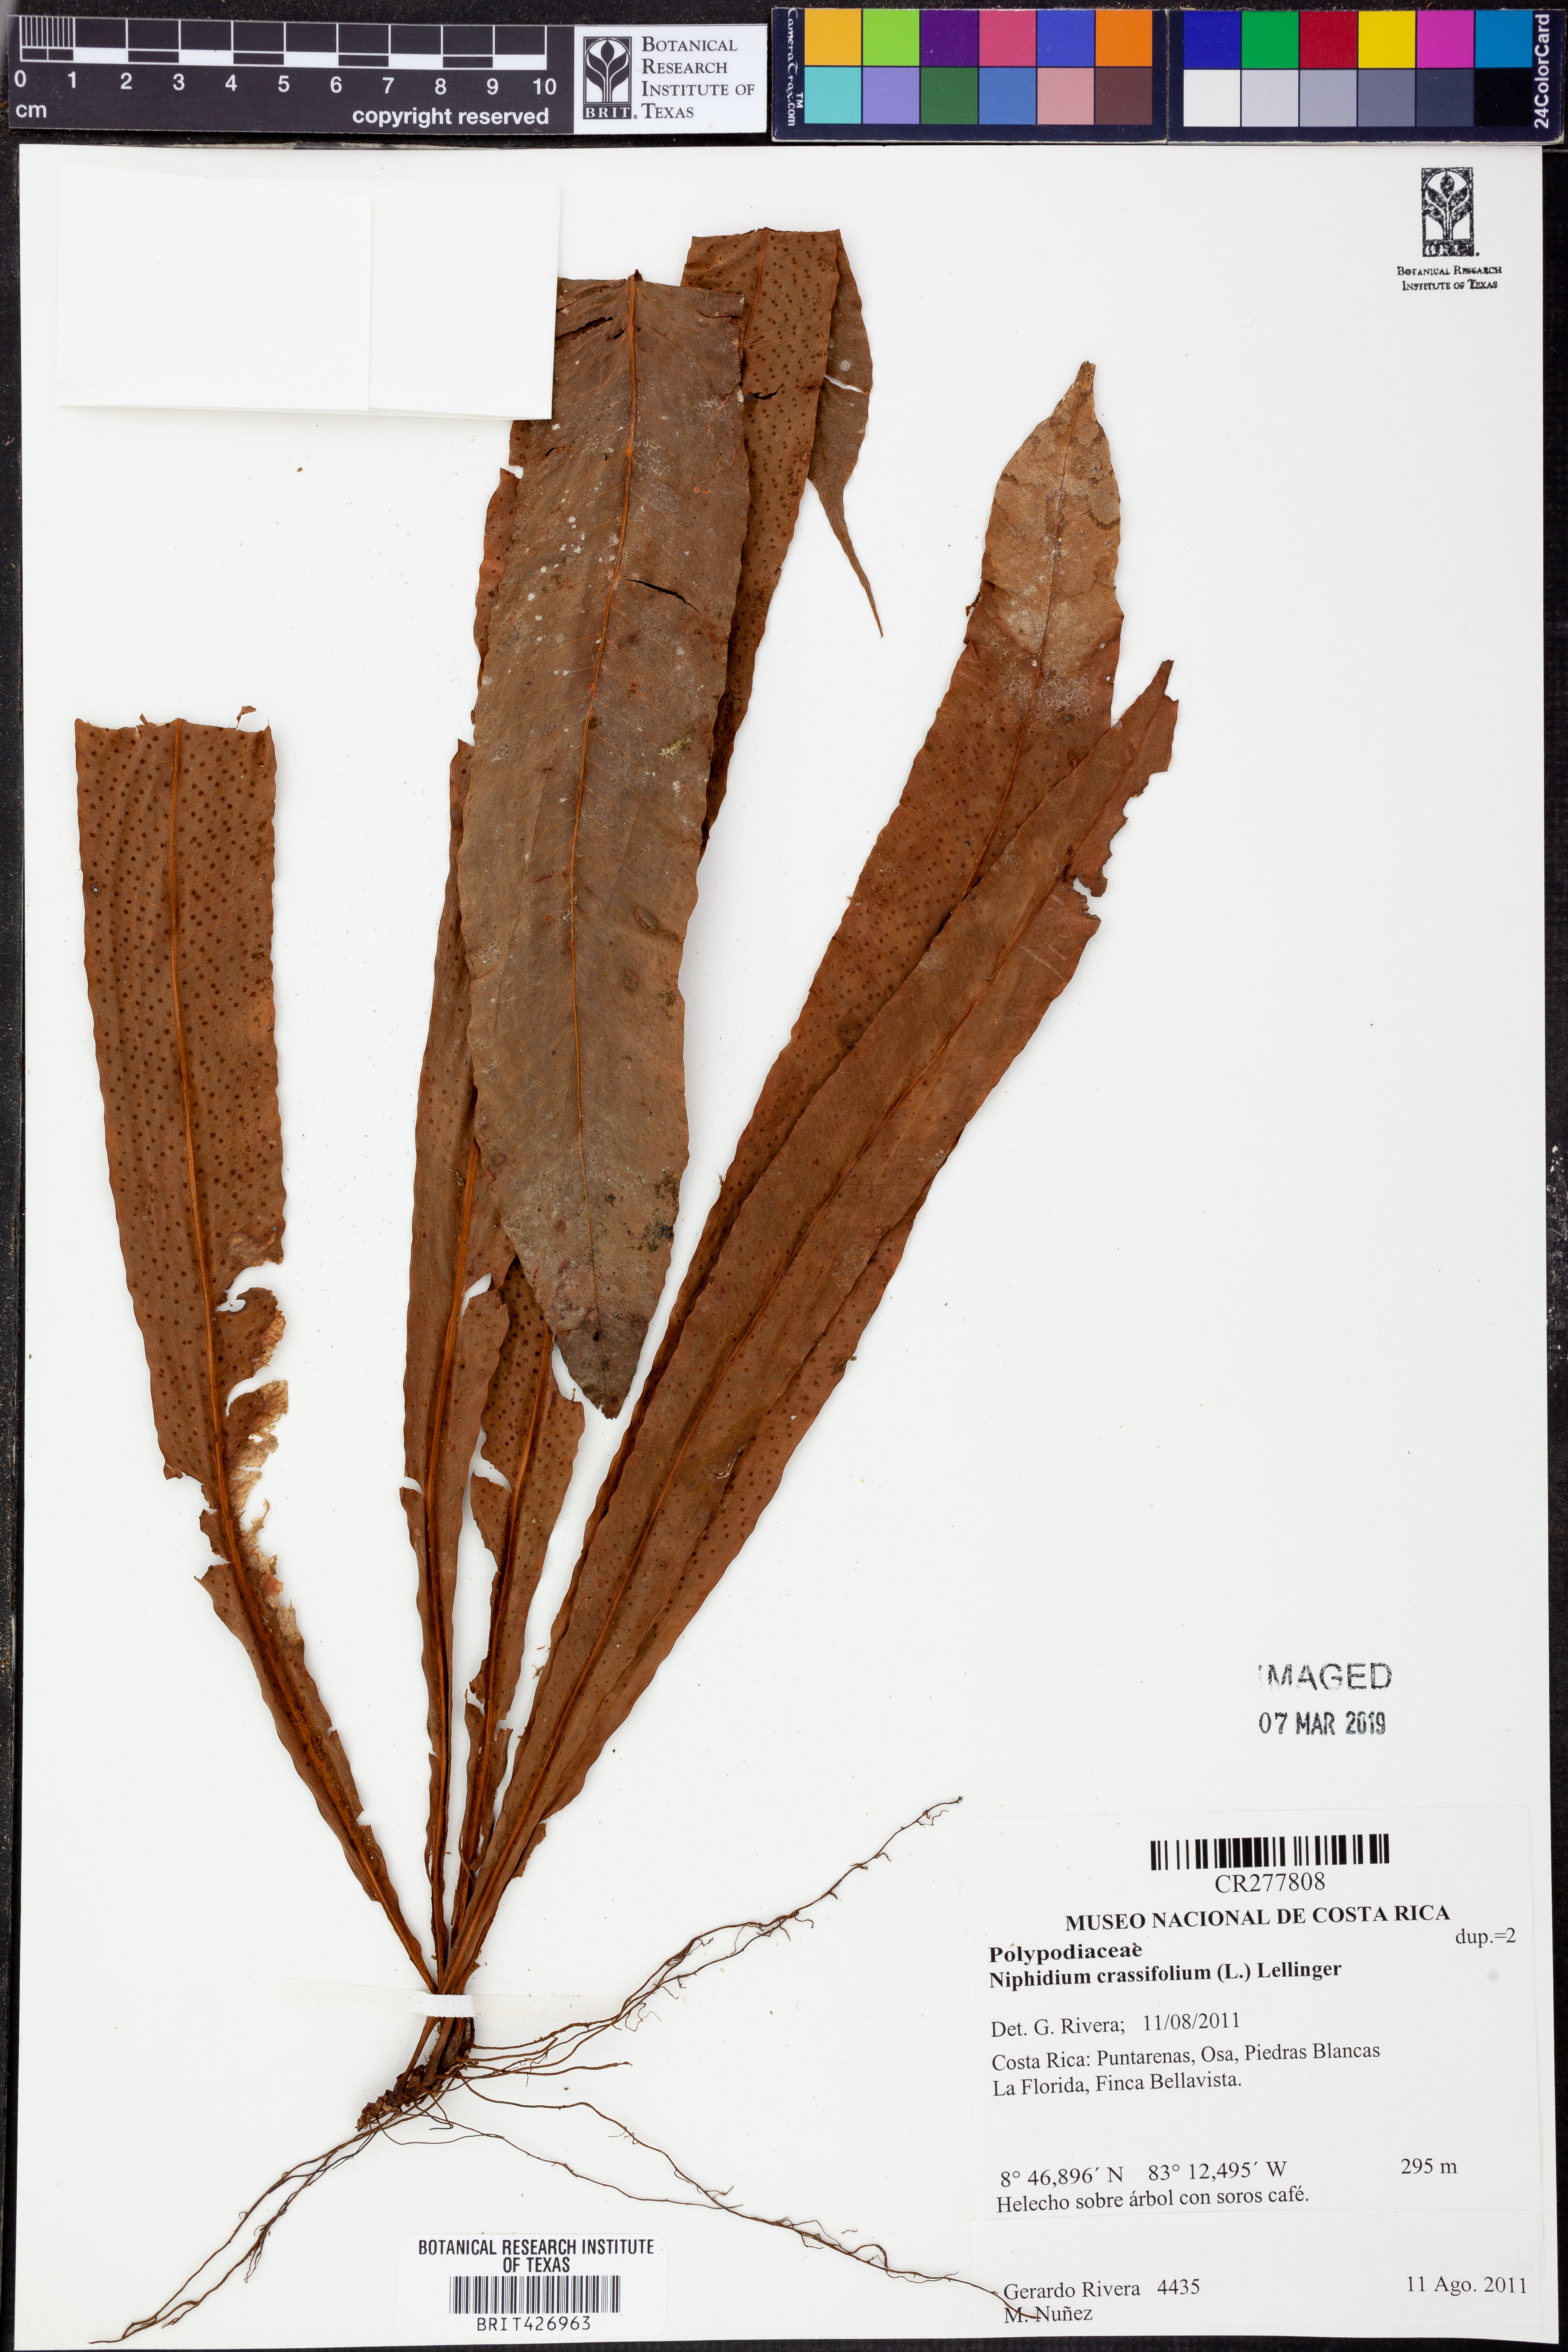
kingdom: Plantae
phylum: Tracheophyta
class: Polypodiopsida
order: Polypodiales
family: Polypodiaceae
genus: Niphidium
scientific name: Niphidium crassifolium
